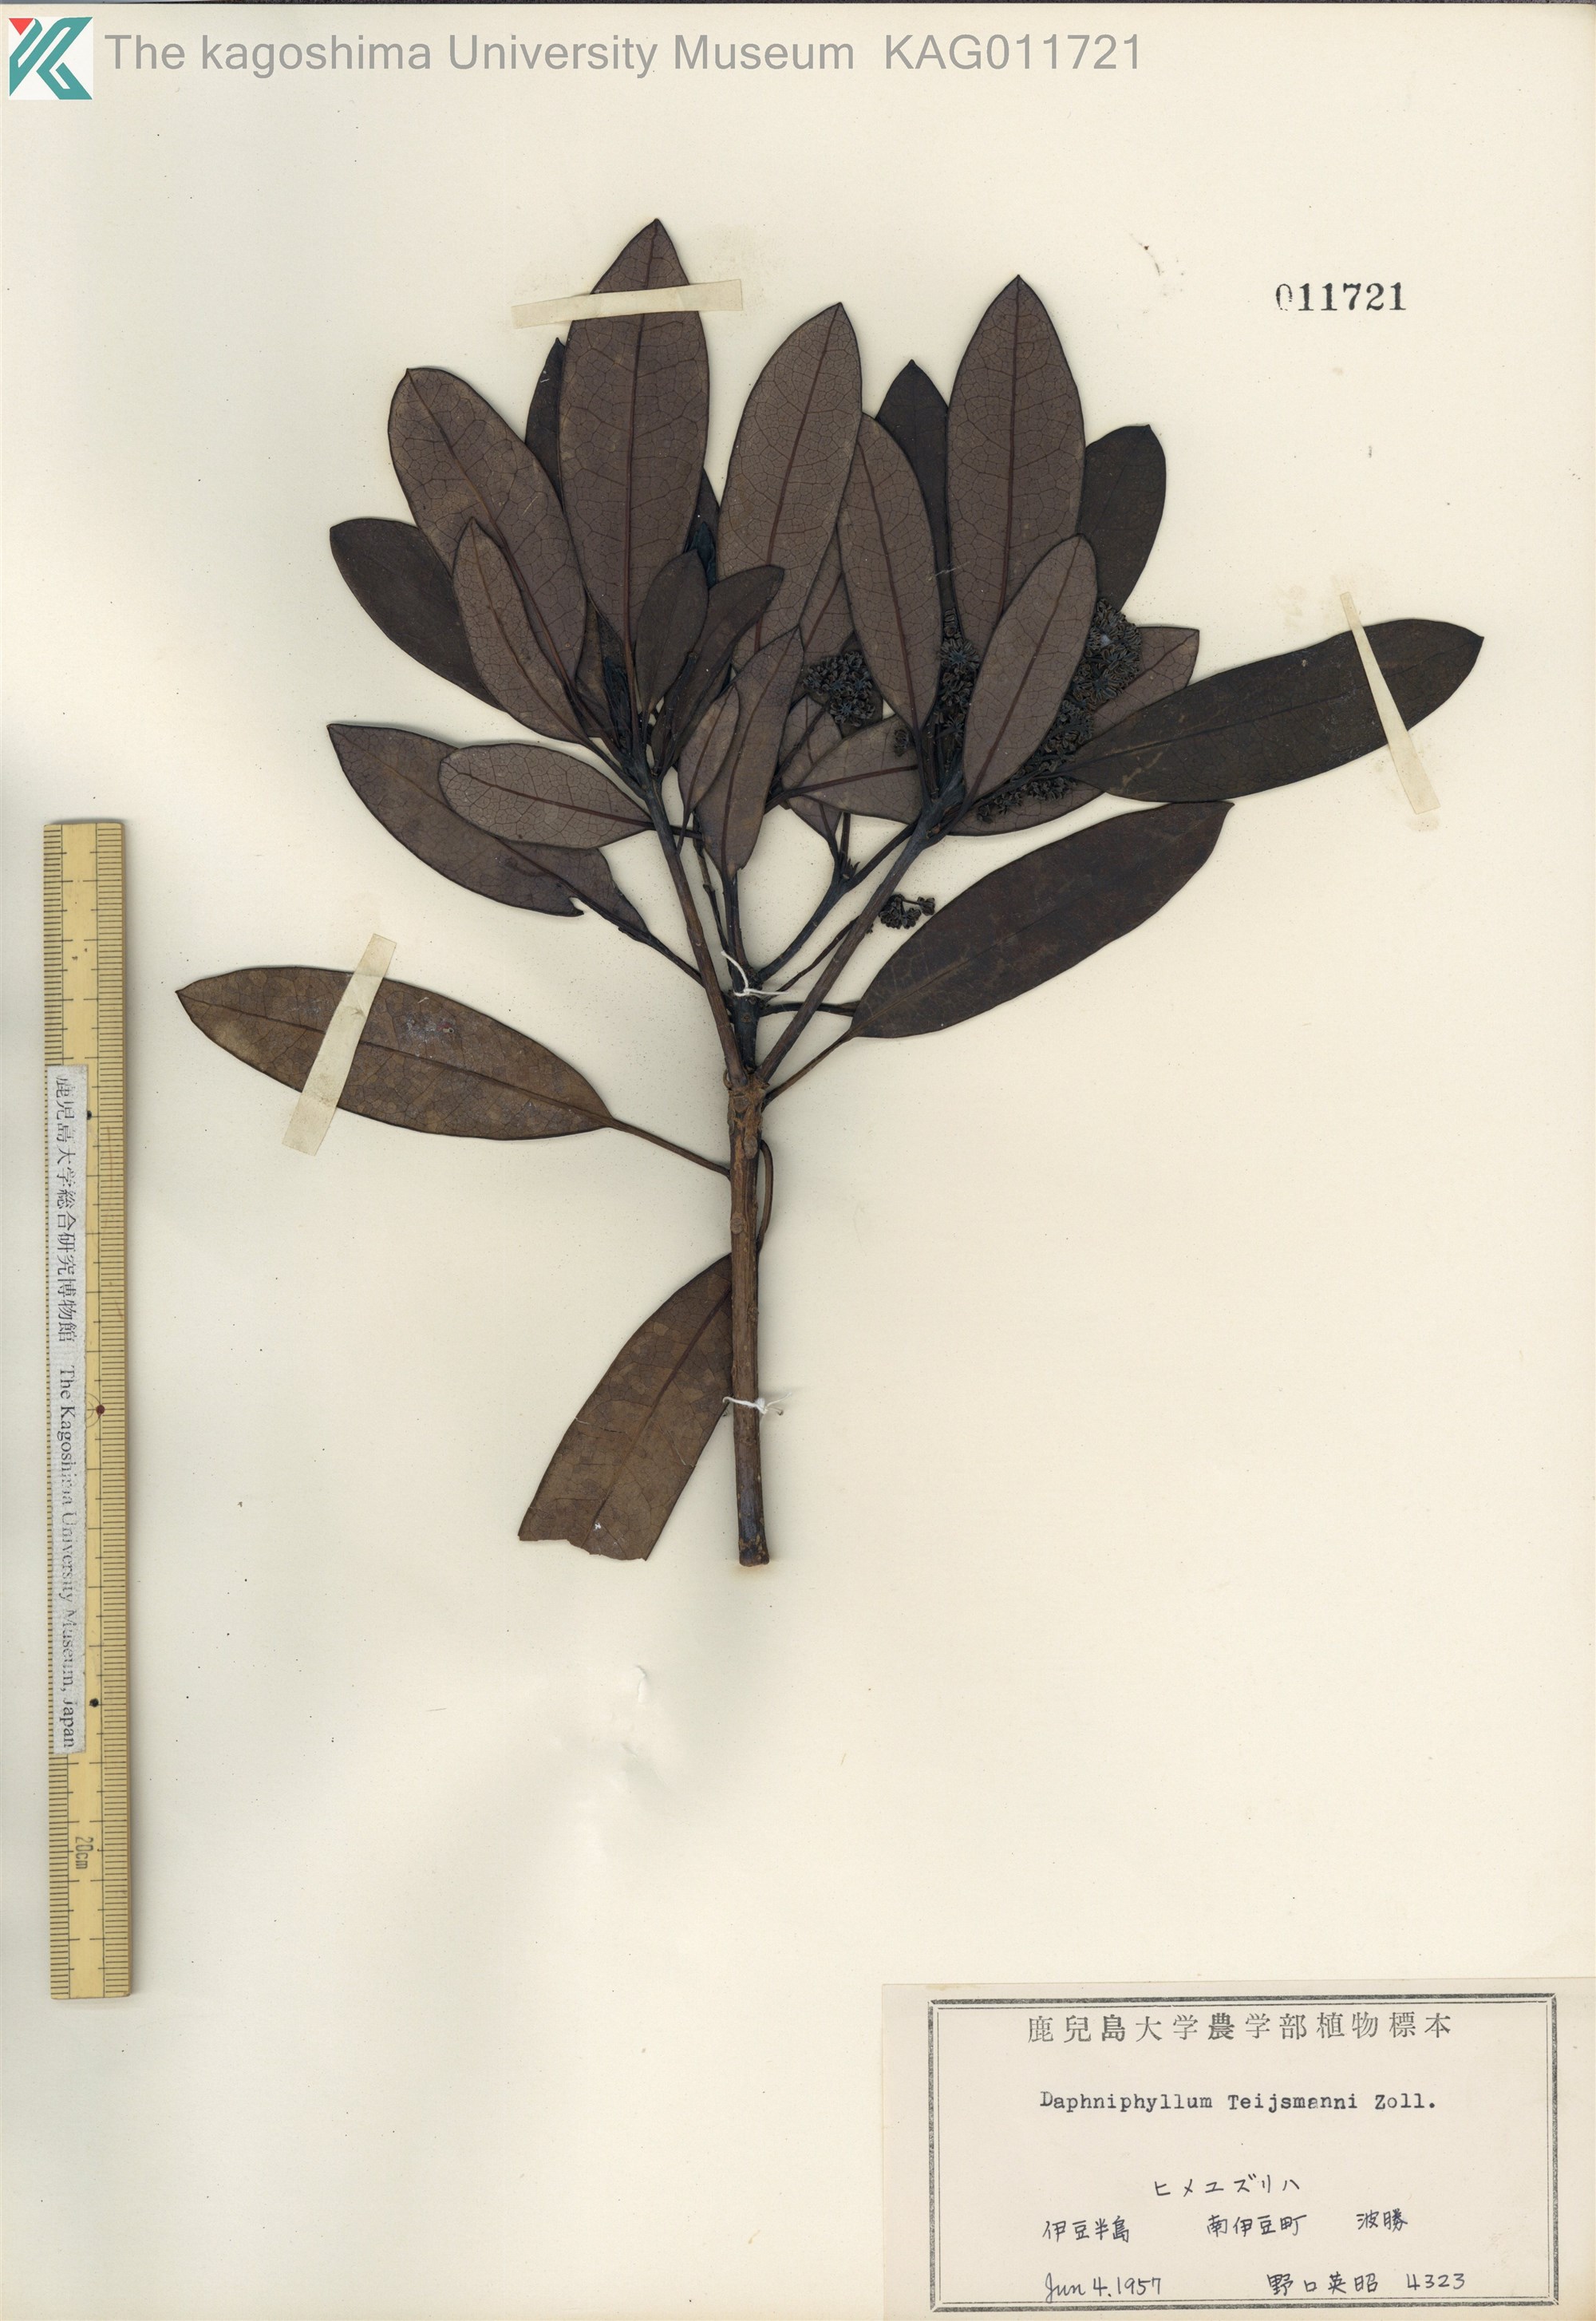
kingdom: Plantae
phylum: Tracheophyta
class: Magnoliopsida
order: Saxifragales
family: Daphniphyllaceae
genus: Daphniphyllum
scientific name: Daphniphyllum teijsmannii
